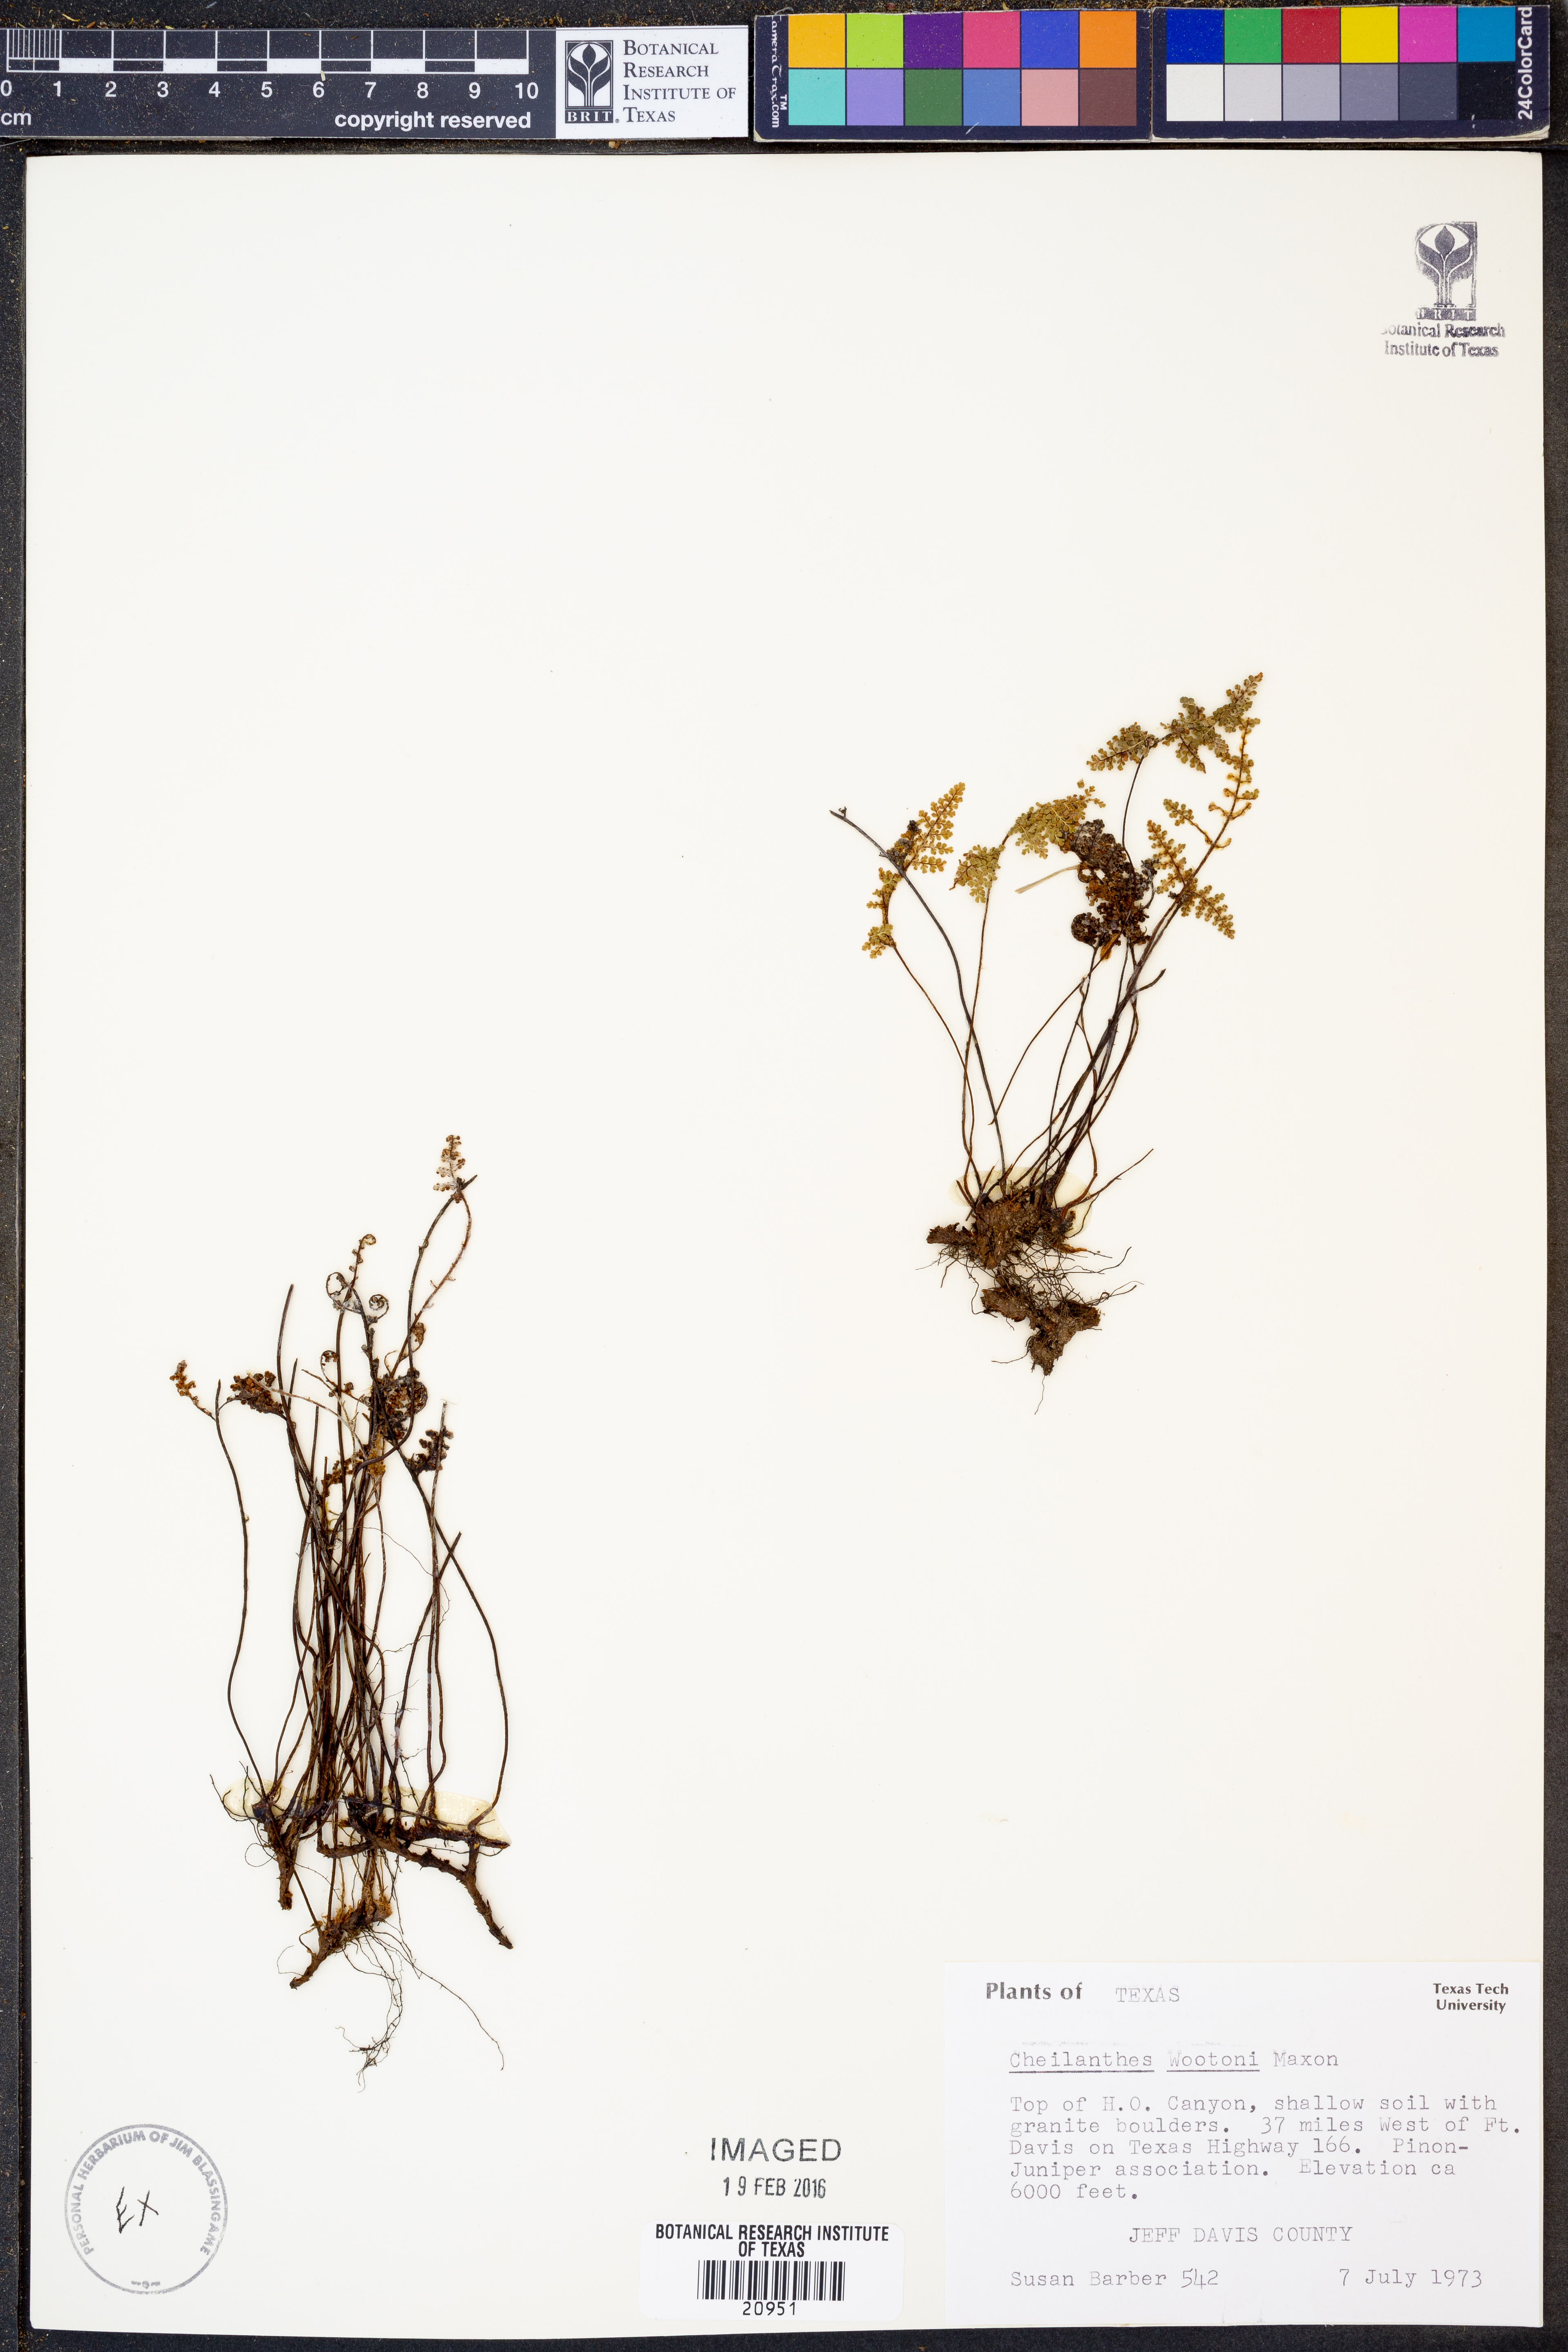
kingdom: Plantae
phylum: Tracheophyta
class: Polypodiopsida
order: Polypodiales
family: Pteridaceae
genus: Myriopteris
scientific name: Myriopteris wootonii
